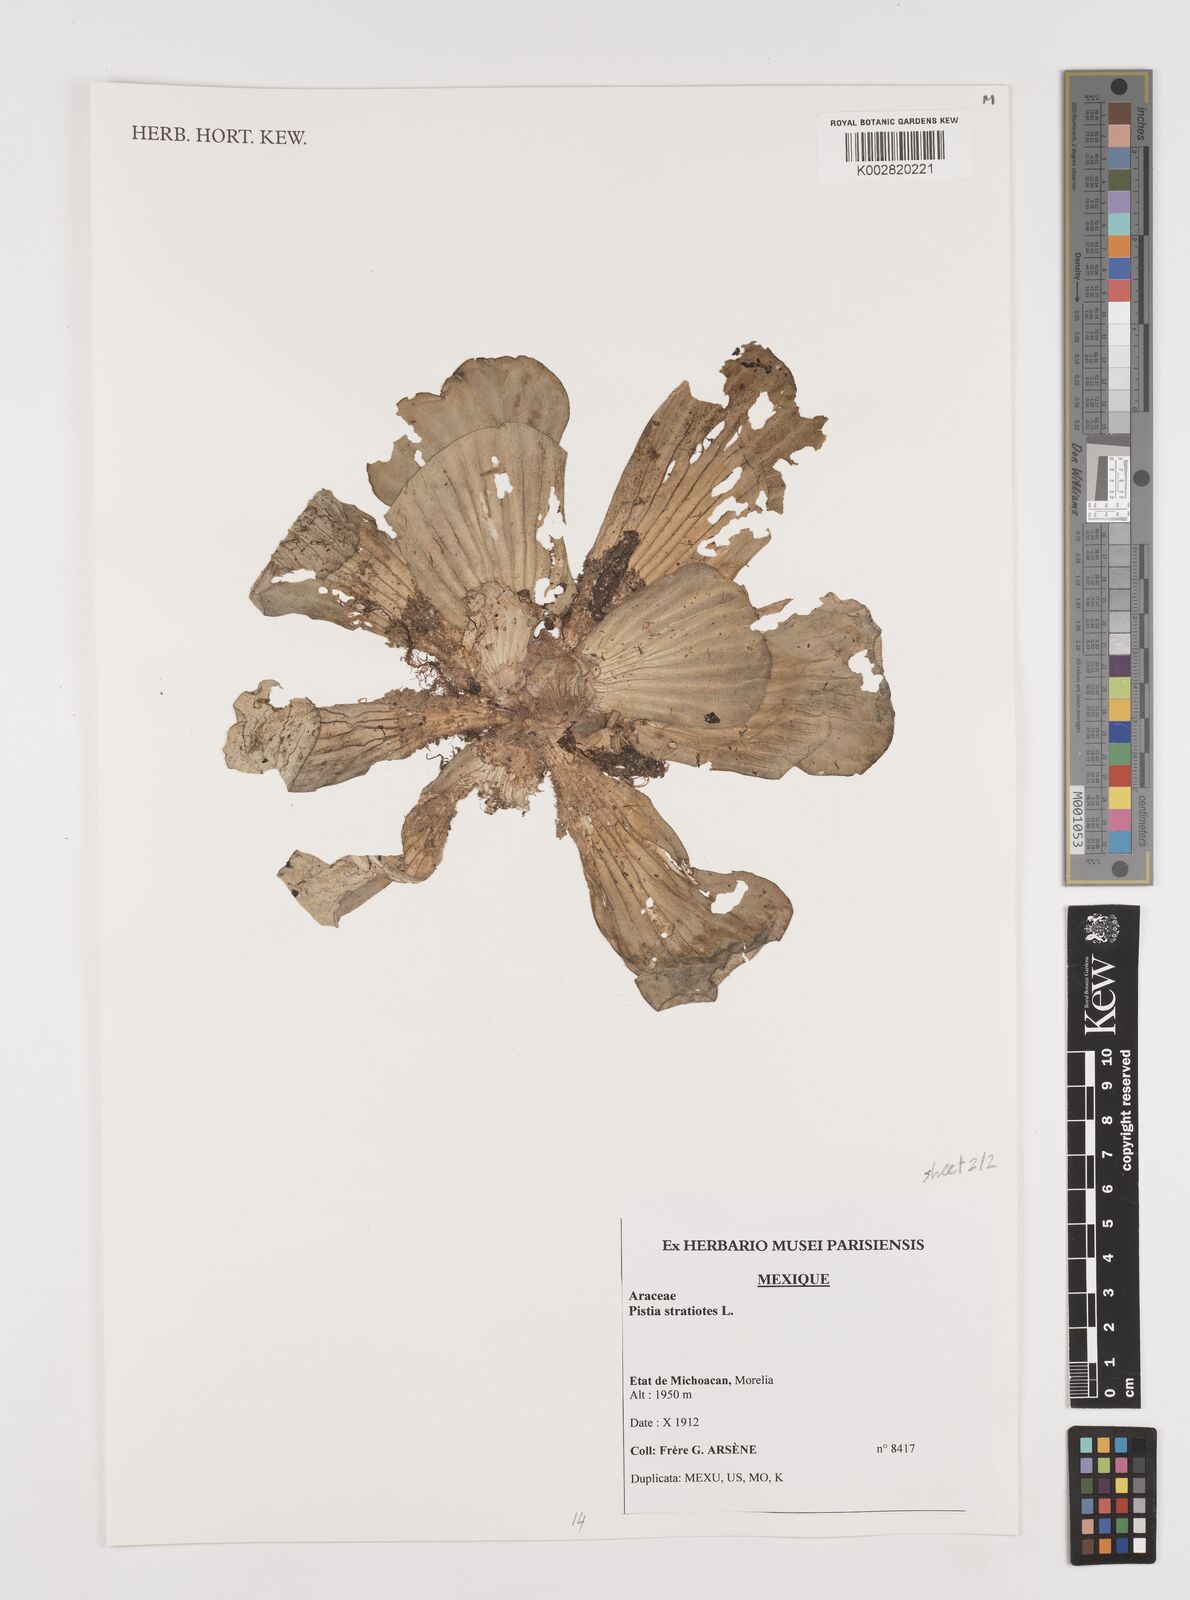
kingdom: Plantae
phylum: Tracheophyta
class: Liliopsida
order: Alismatales
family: Araceae
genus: Pistia
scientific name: Pistia stratiotes
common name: Water lettuce
